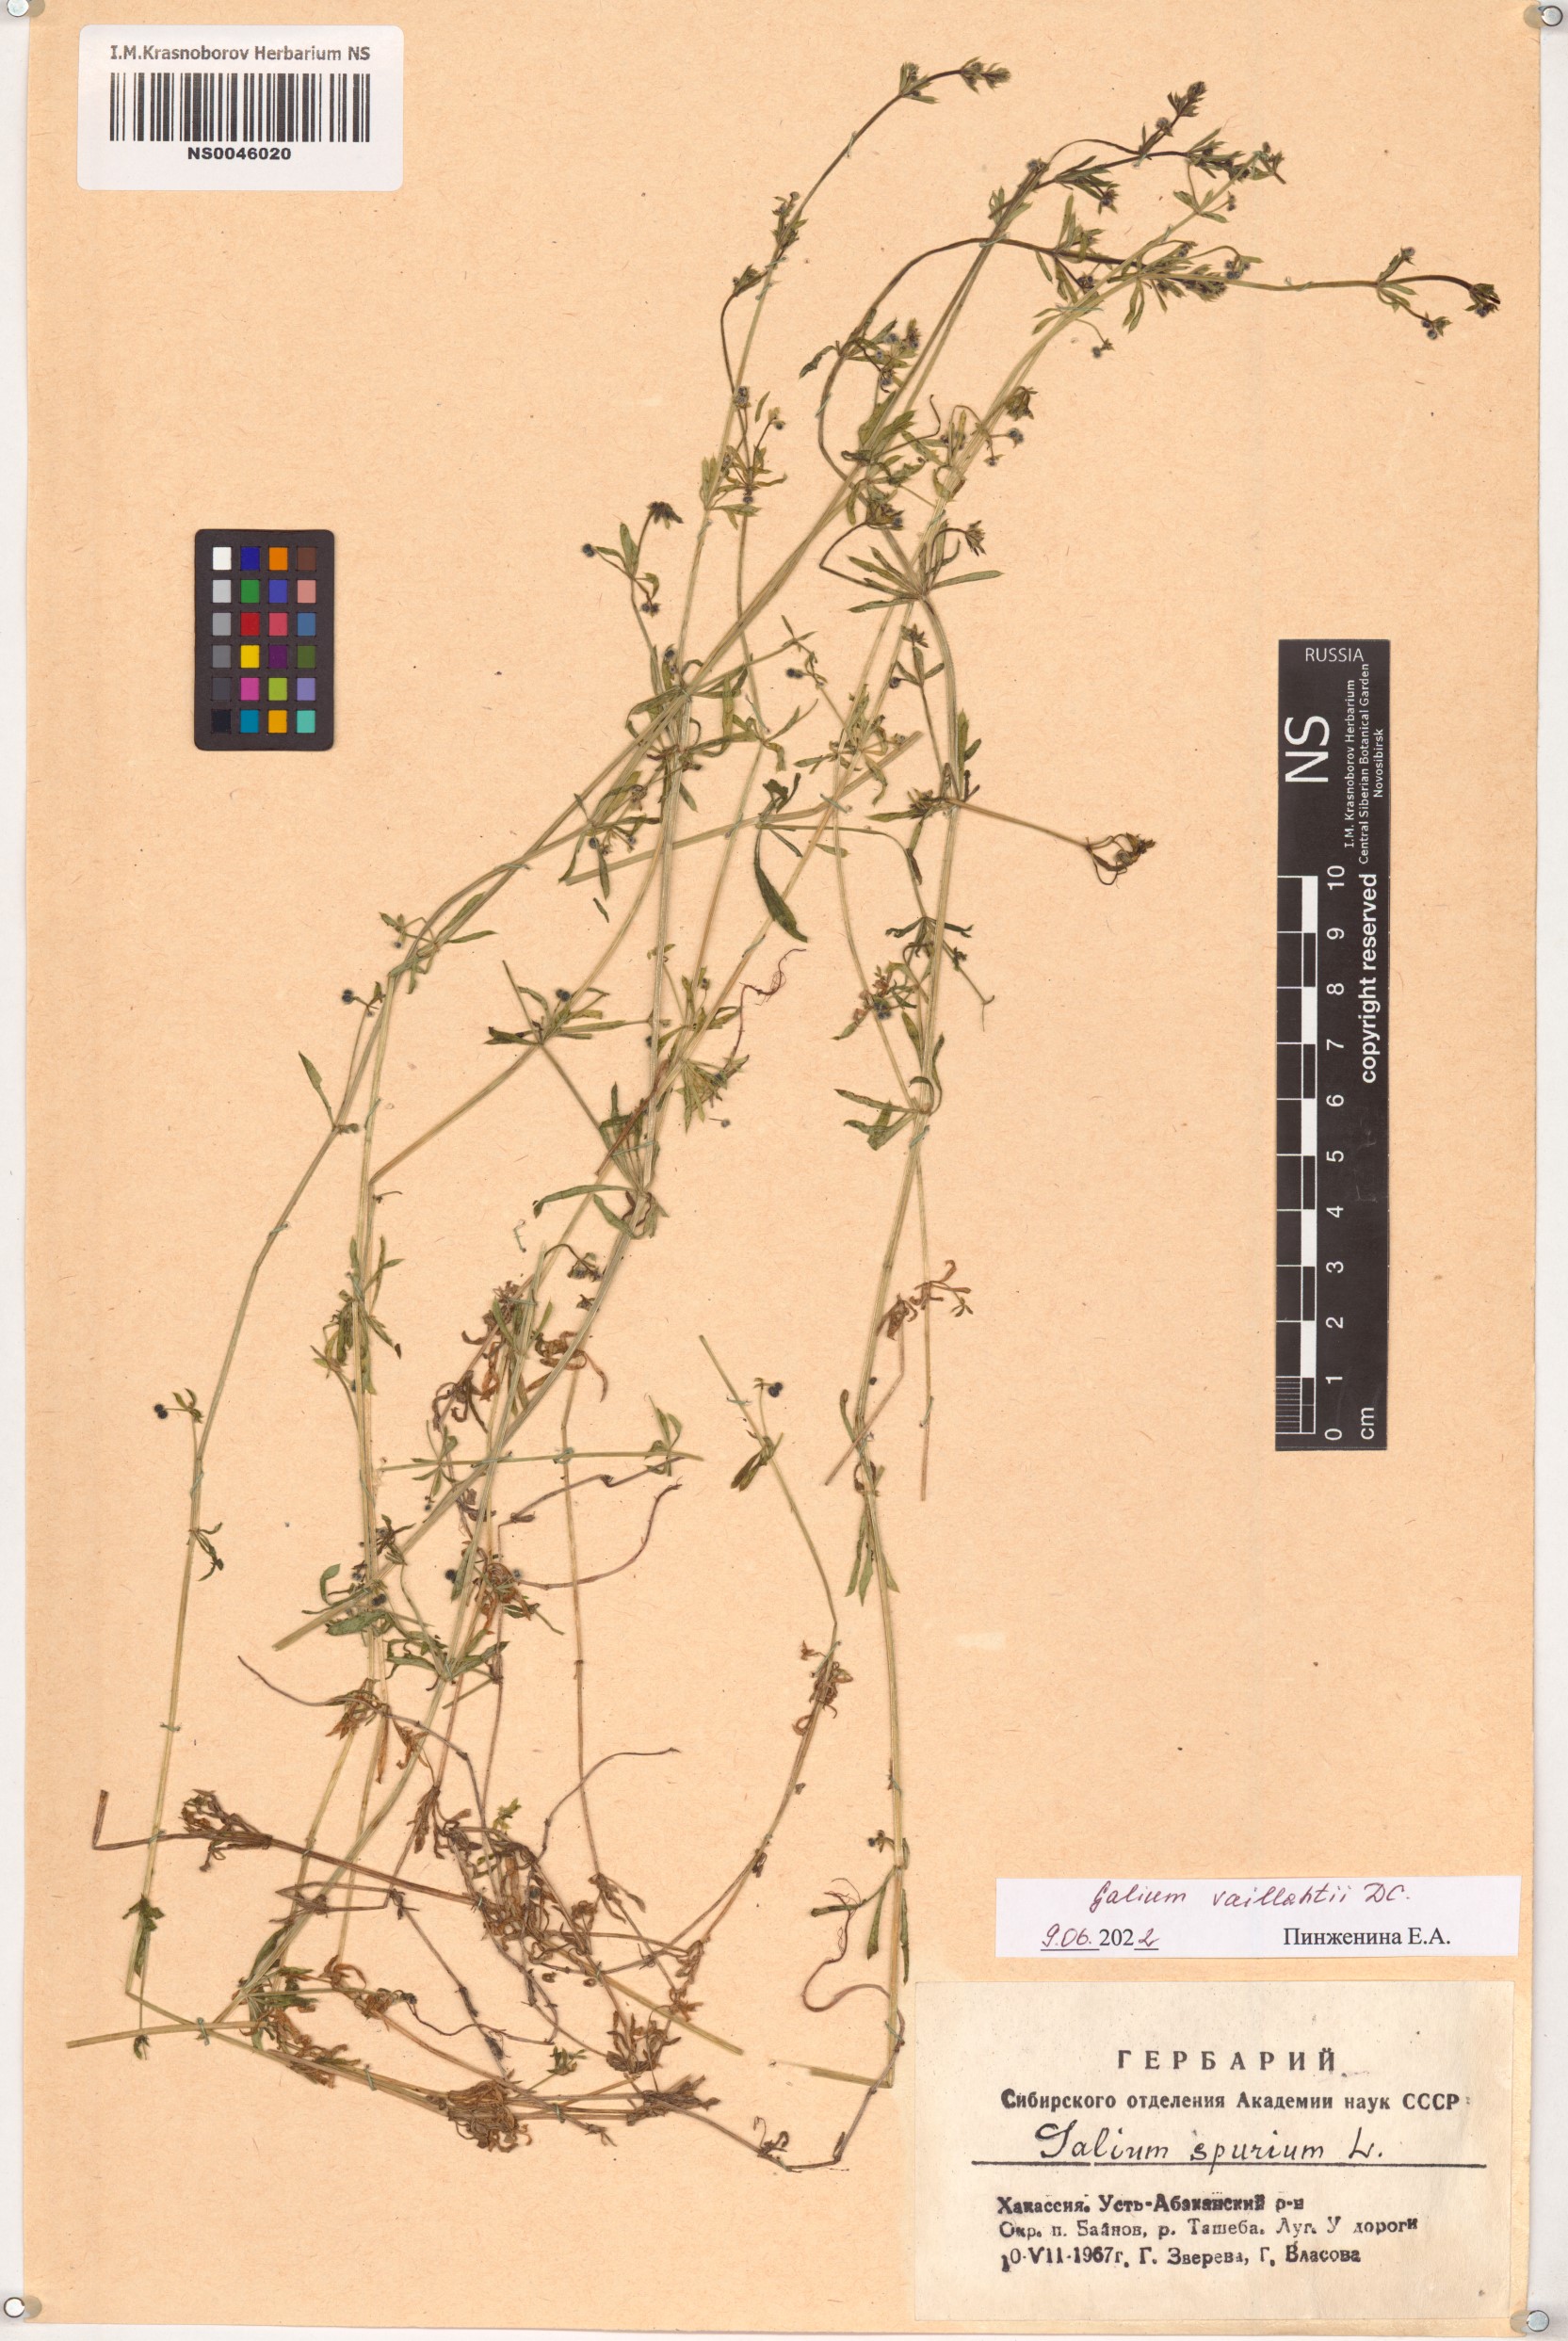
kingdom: Plantae
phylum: Tracheophyta
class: Magnoliopsida
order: Gentianales
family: Rubiaceae
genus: Galium
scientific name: Galium spurium
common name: False cleavers
